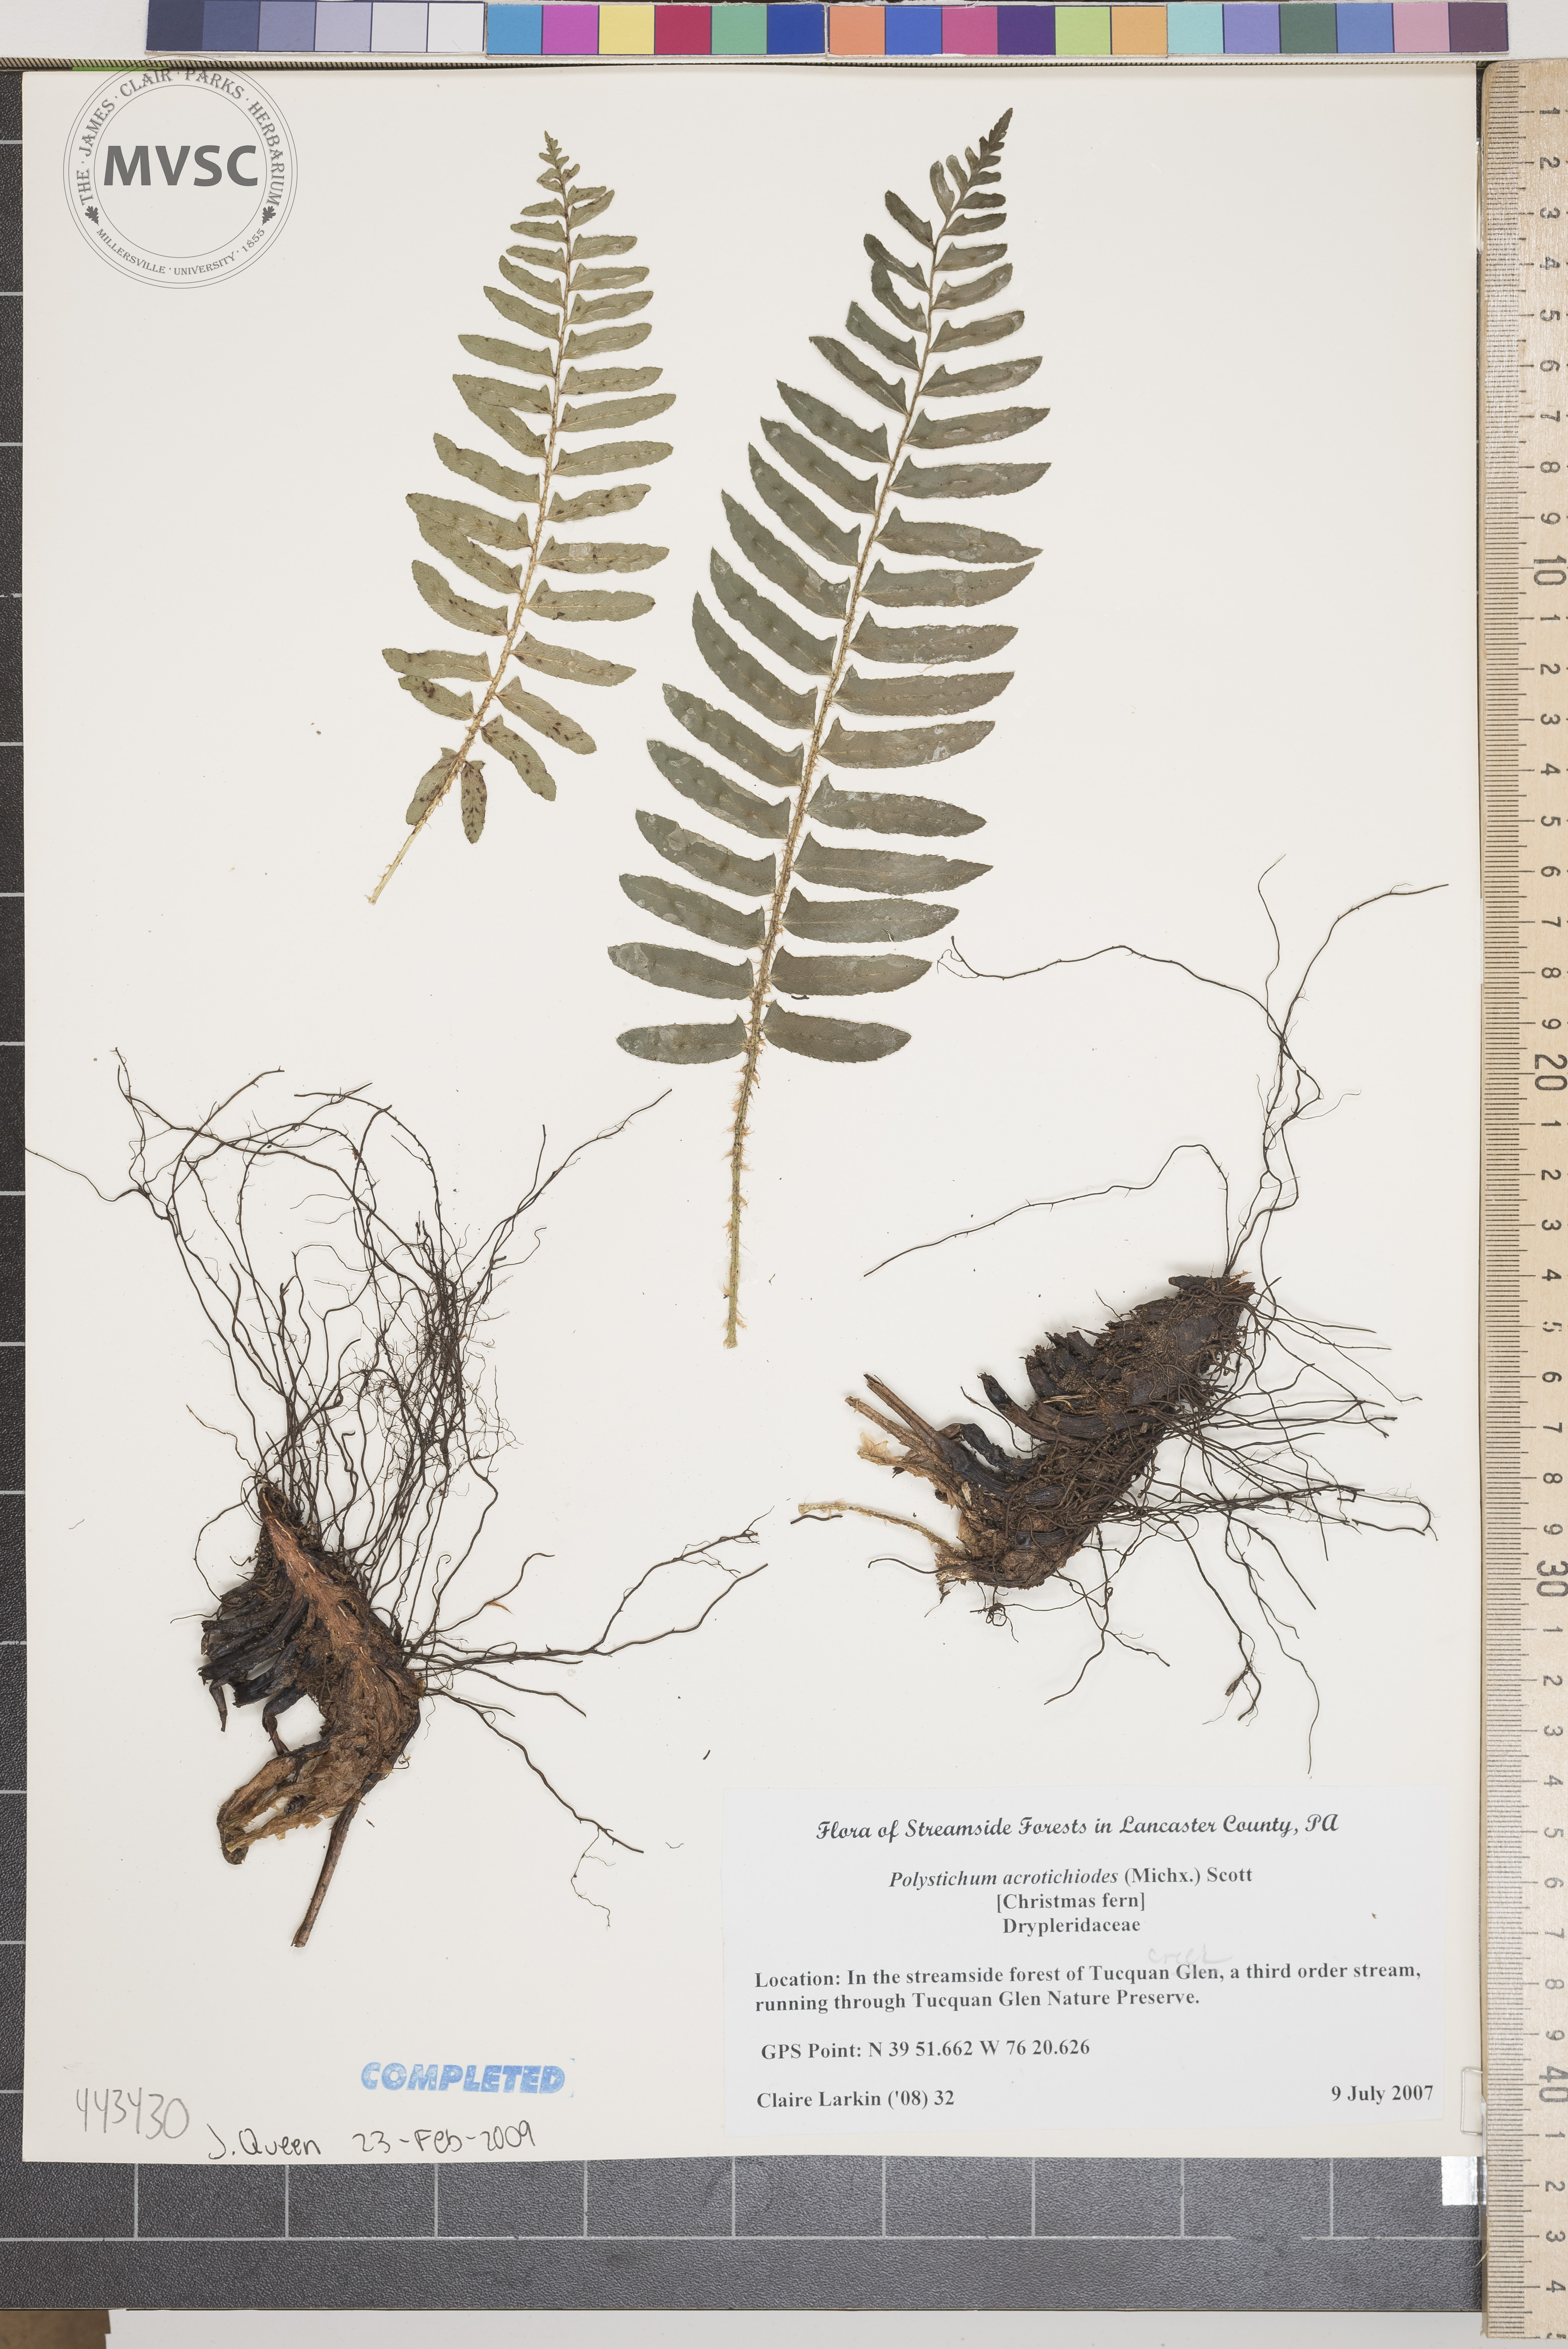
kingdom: Plantae
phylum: Tracheophyta
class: Polypodiopsida
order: Polypodiales
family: Dryopteridaceae
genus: Polystichum
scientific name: Polystichum acrostichoides
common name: Christmas Fern
